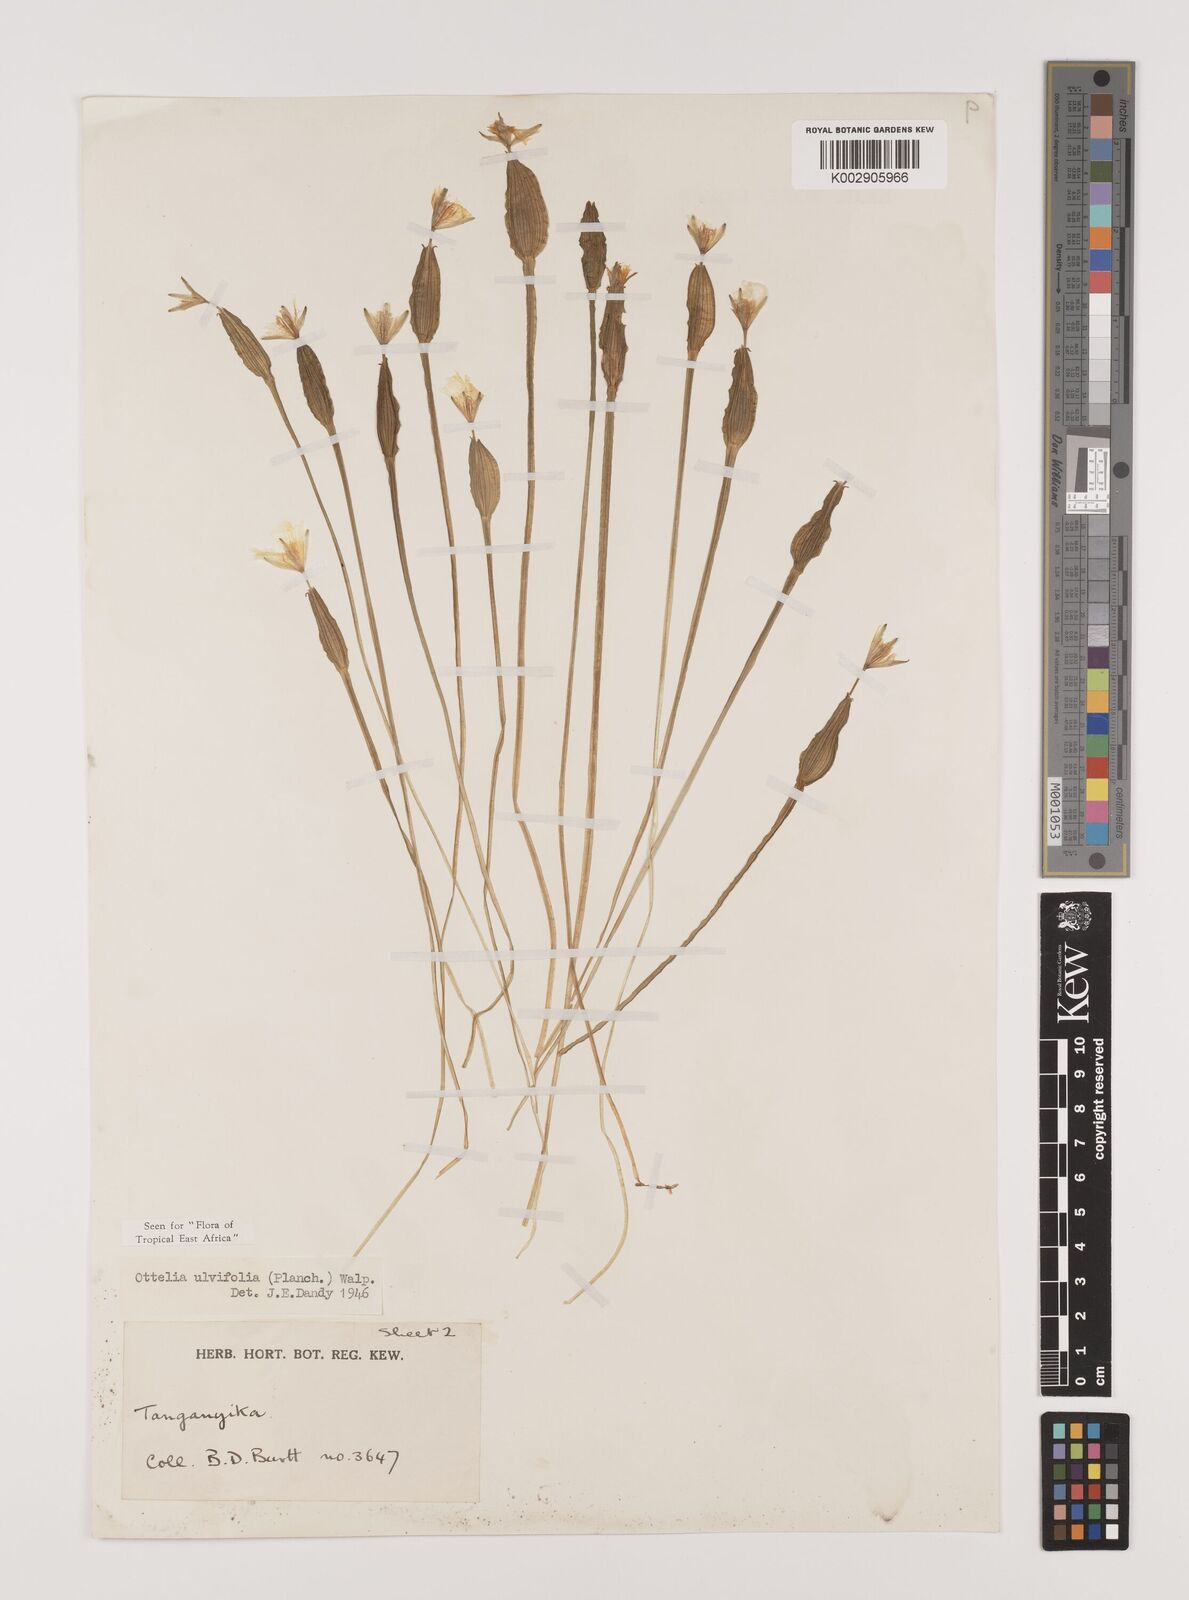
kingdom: Plantae
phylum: Tracheophyta
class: Liliopsida
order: Alismatales
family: Hydrocharitaceae
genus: Ottelia
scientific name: Ottelia ulvifolia
